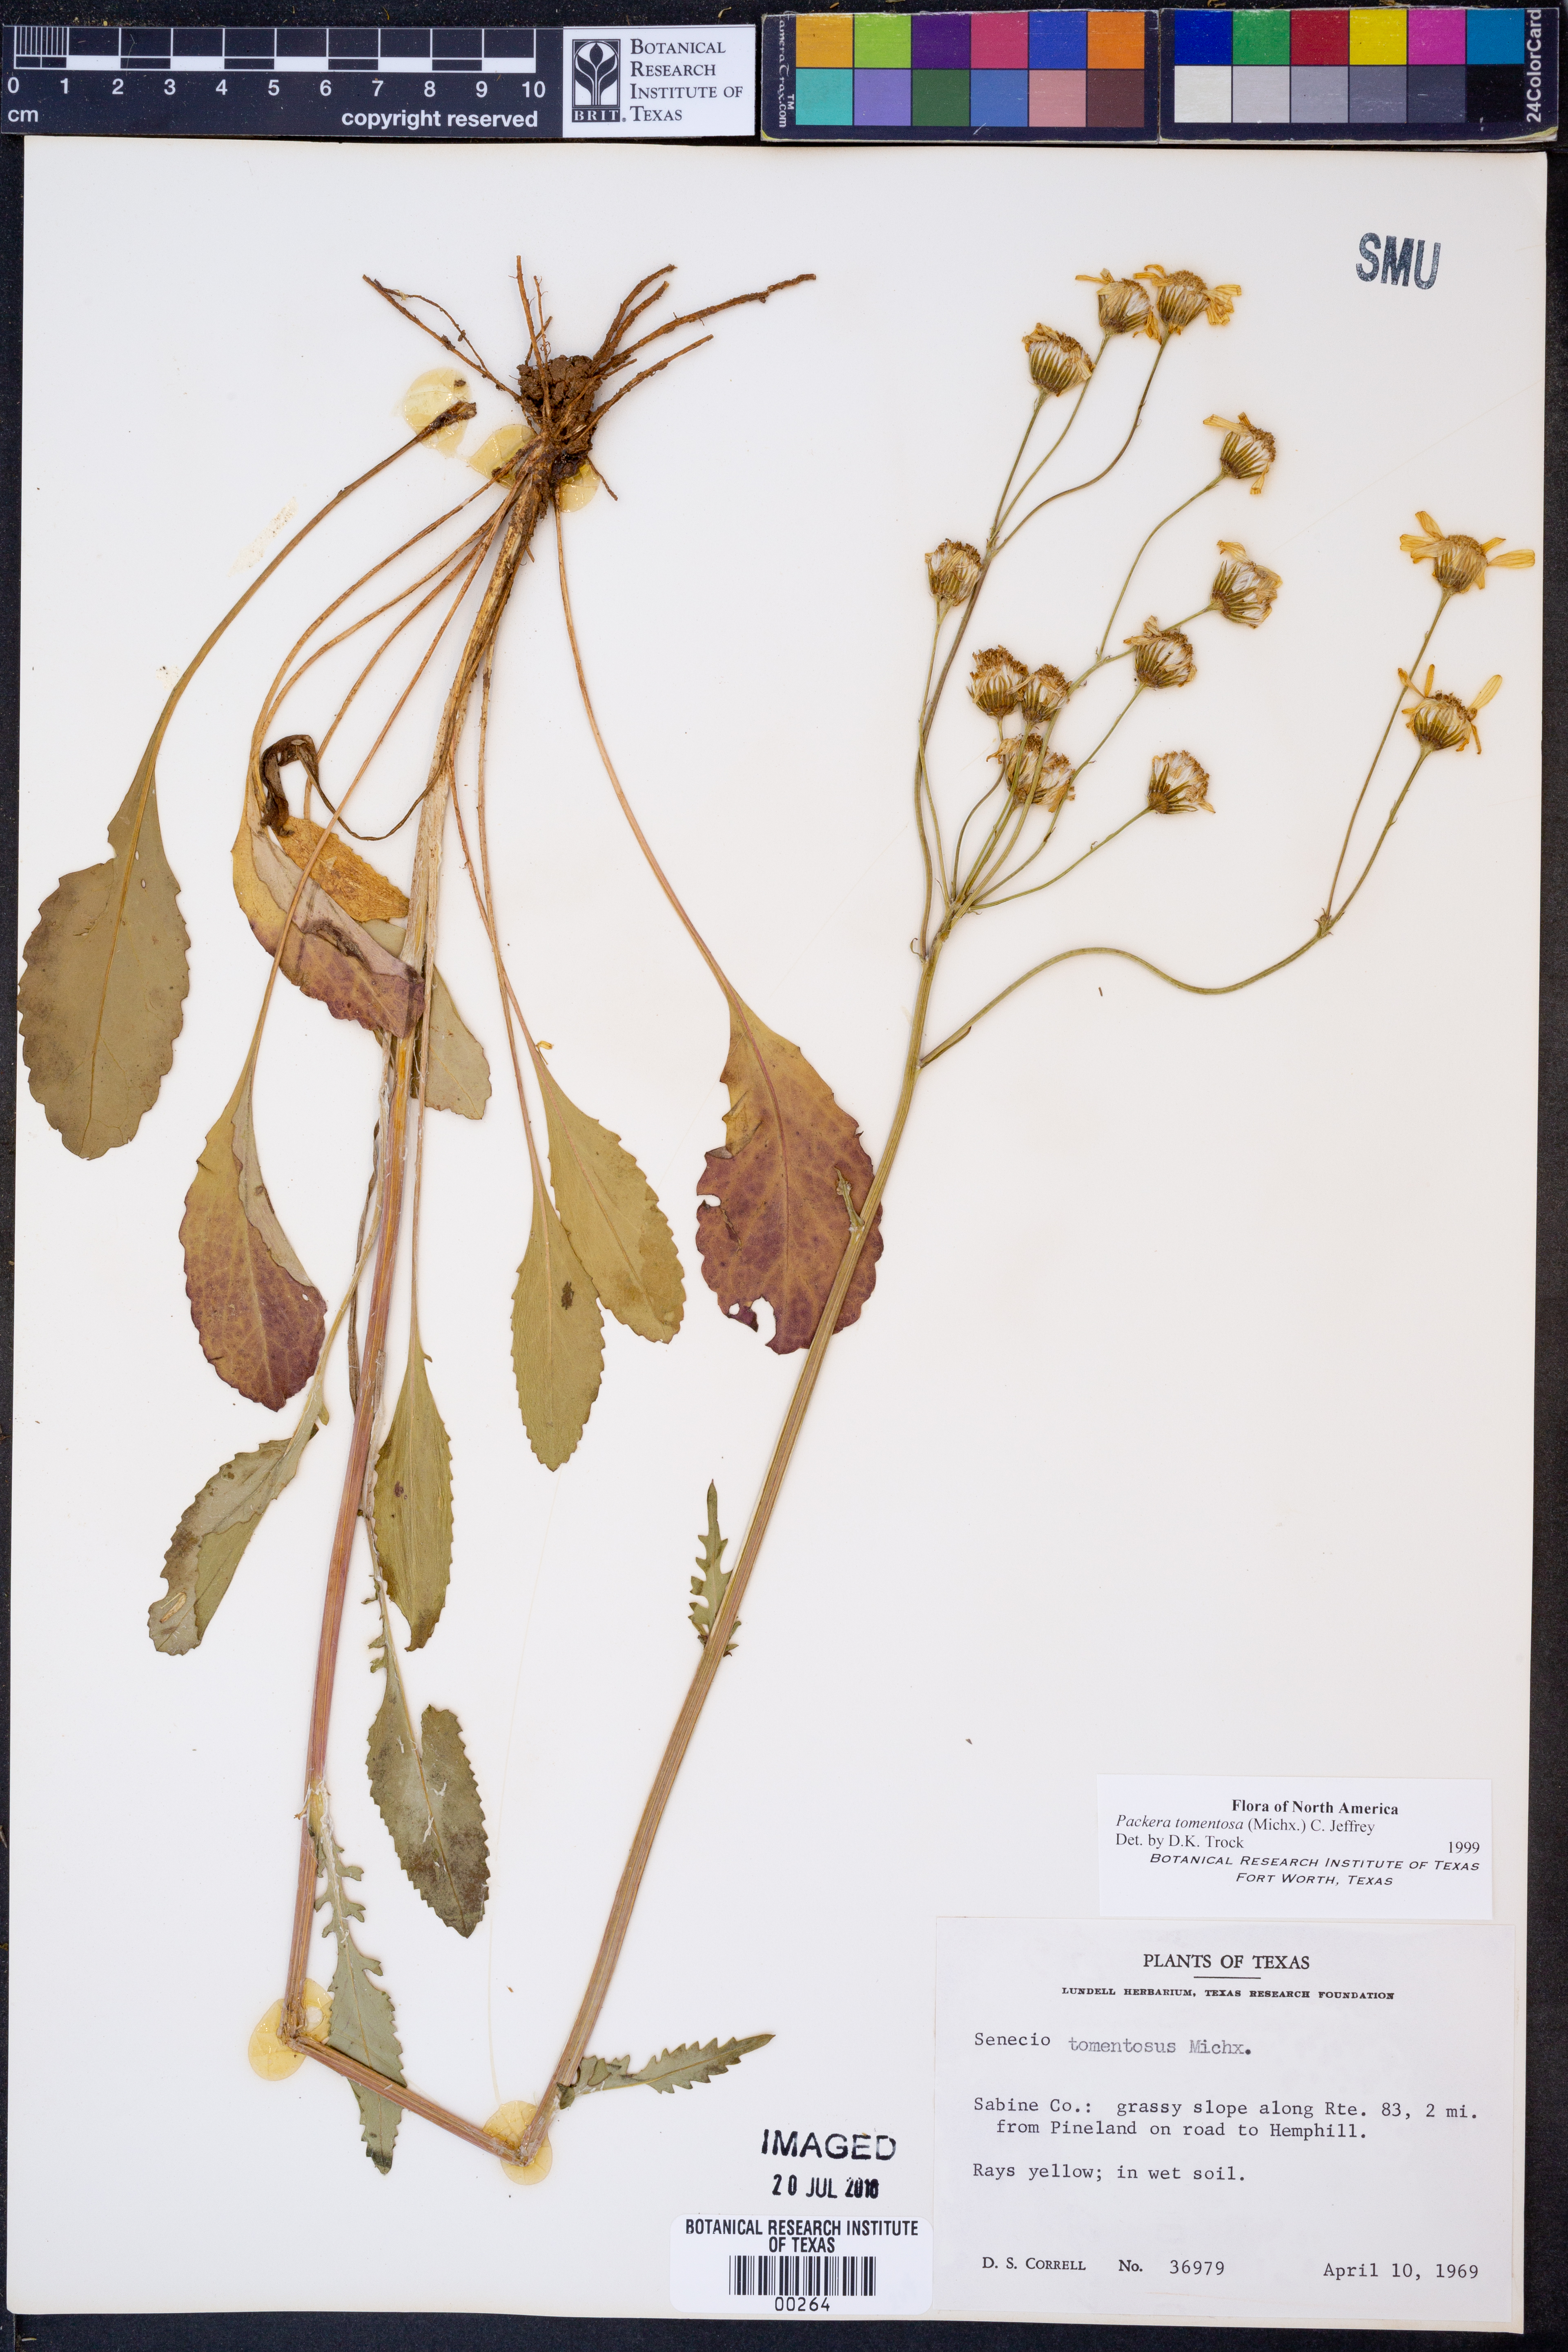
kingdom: Plantae
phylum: Tracheophyta
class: Magnoliopsida
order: Asterales
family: Asteraceae
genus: Packera
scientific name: Packera dubia
